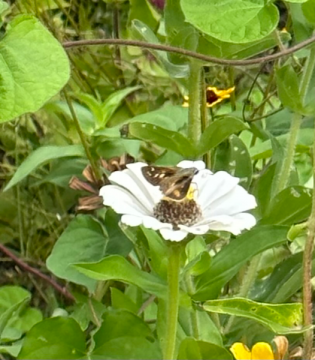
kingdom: Animalia
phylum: Arthropoda
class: Insecta
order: Lepidoptera
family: Hesperiidae
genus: Atalopedes
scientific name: Atalopedes campestris
